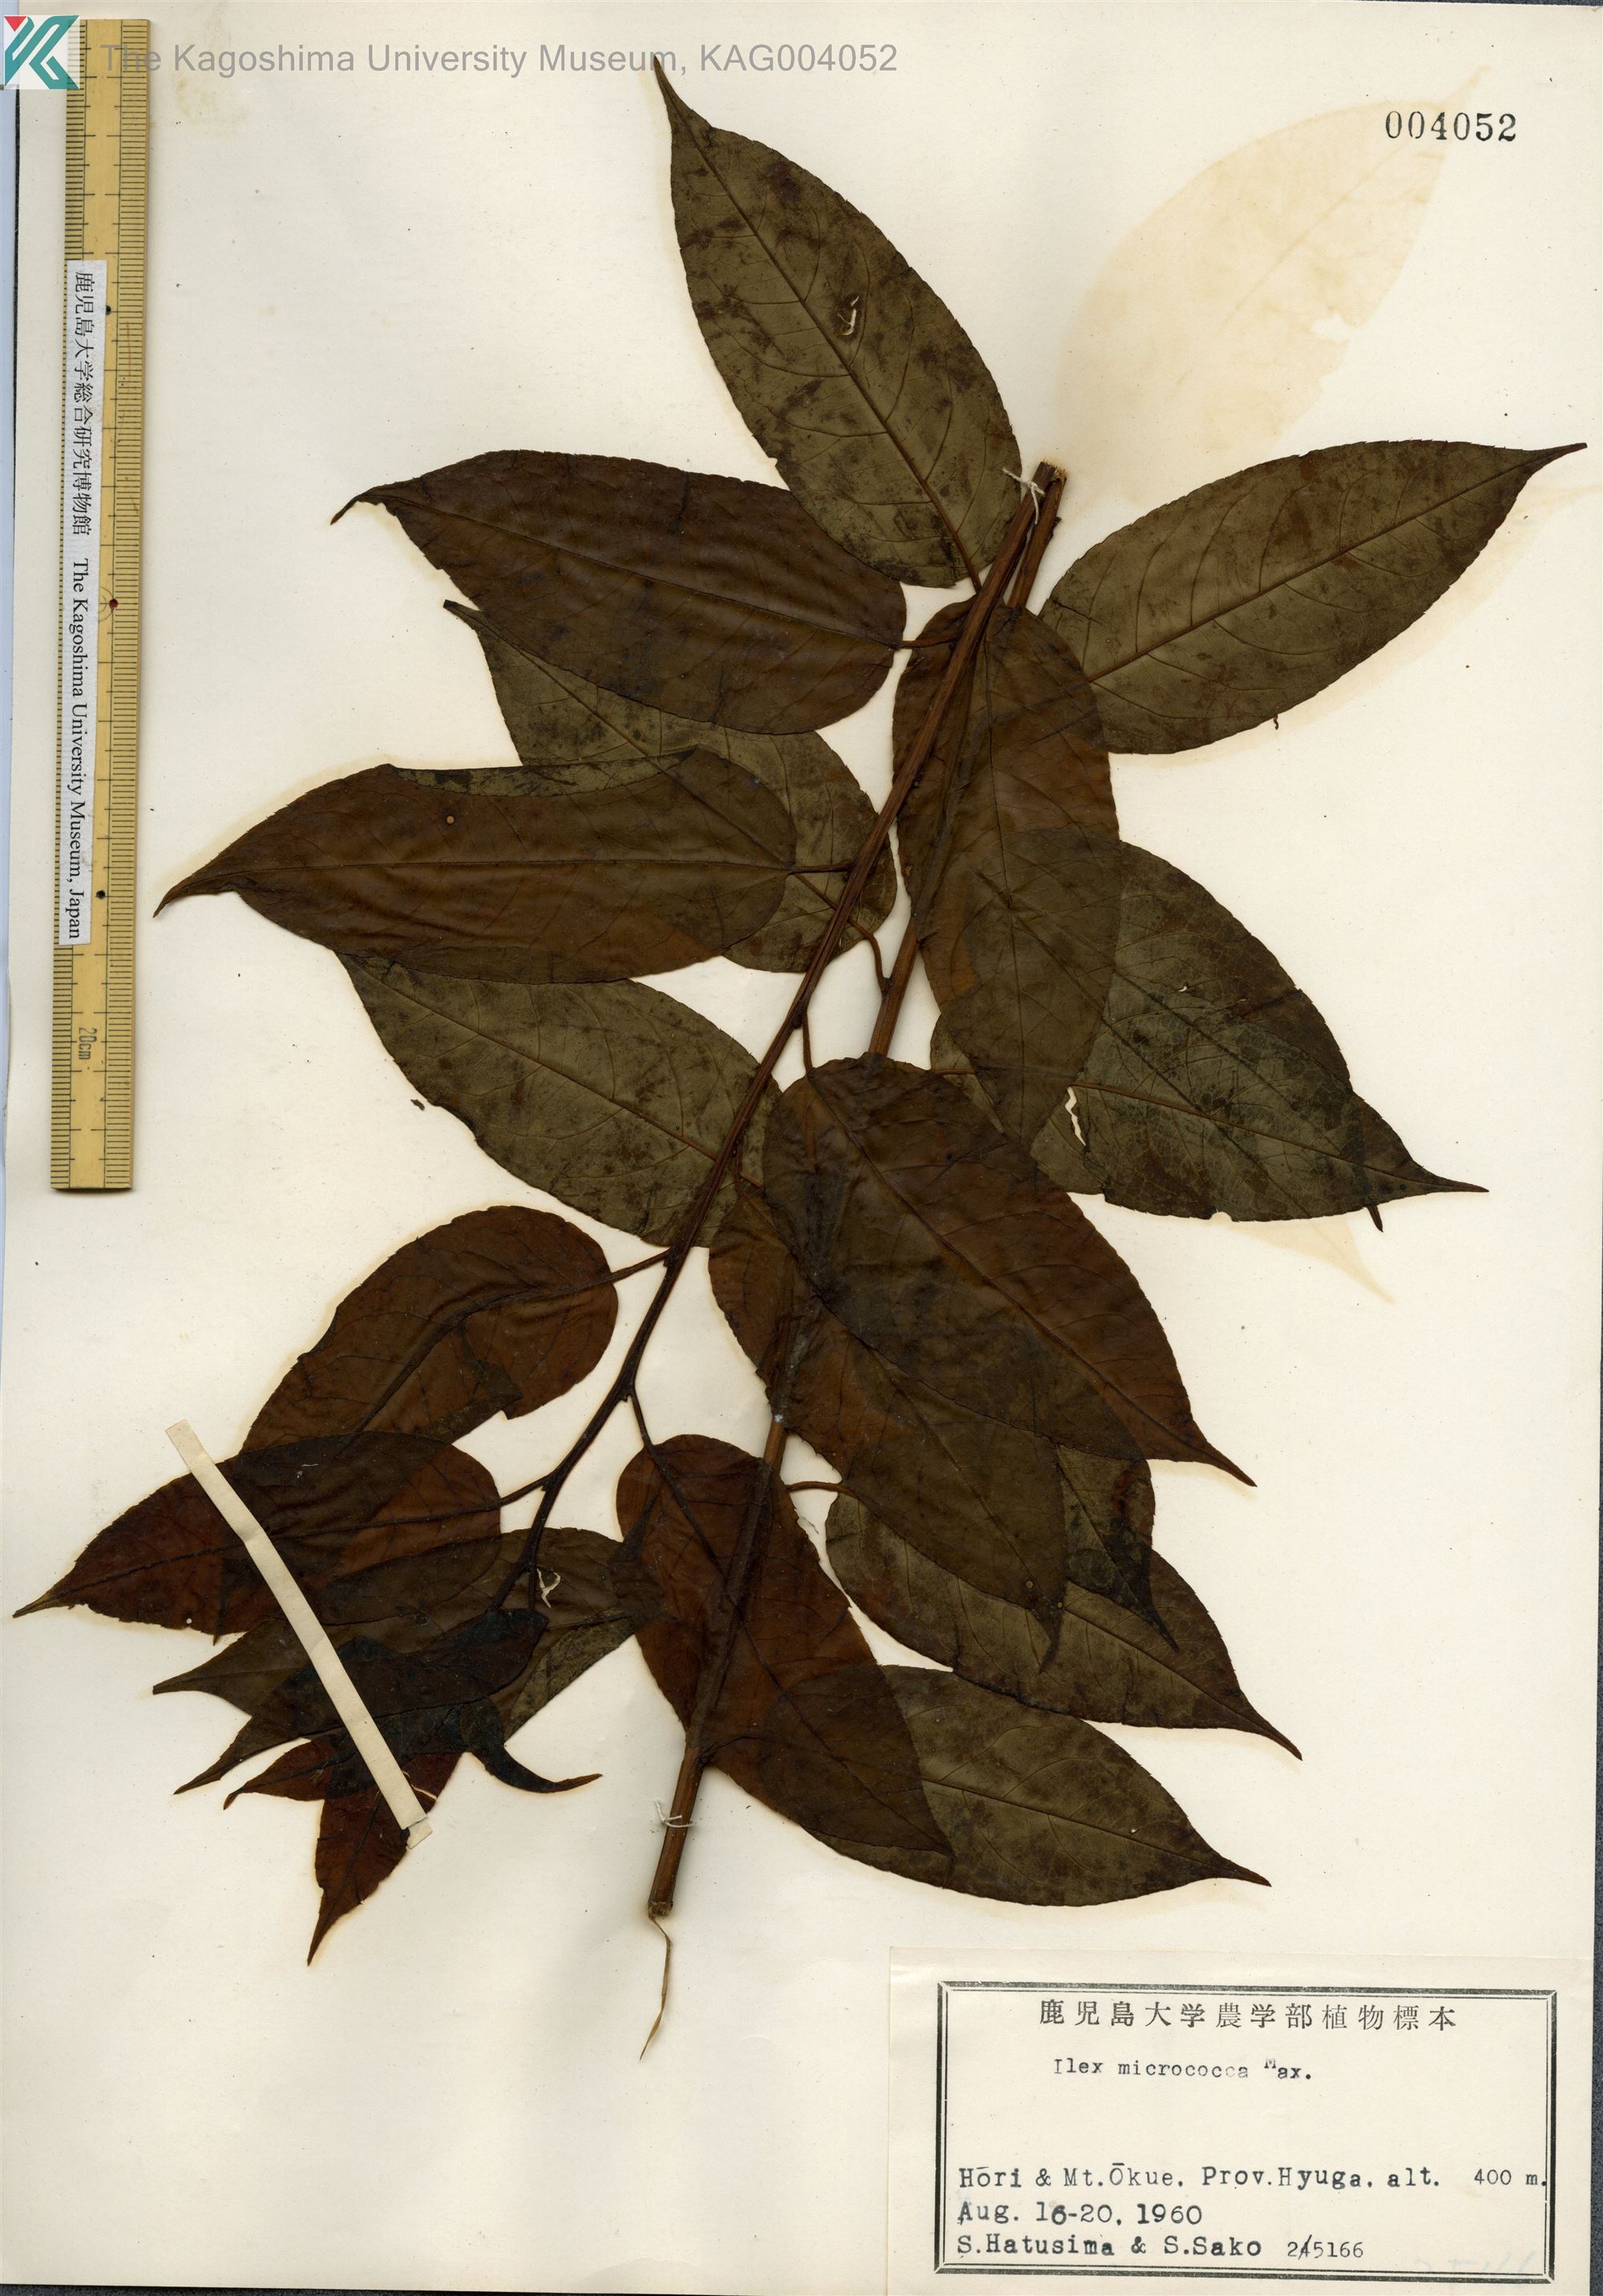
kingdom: Plantae
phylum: Tracheophyta
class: Magnoliopsida
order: Aquifoliales
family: Aquifoliaceae
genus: Ilex
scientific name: Ilex rotunda
